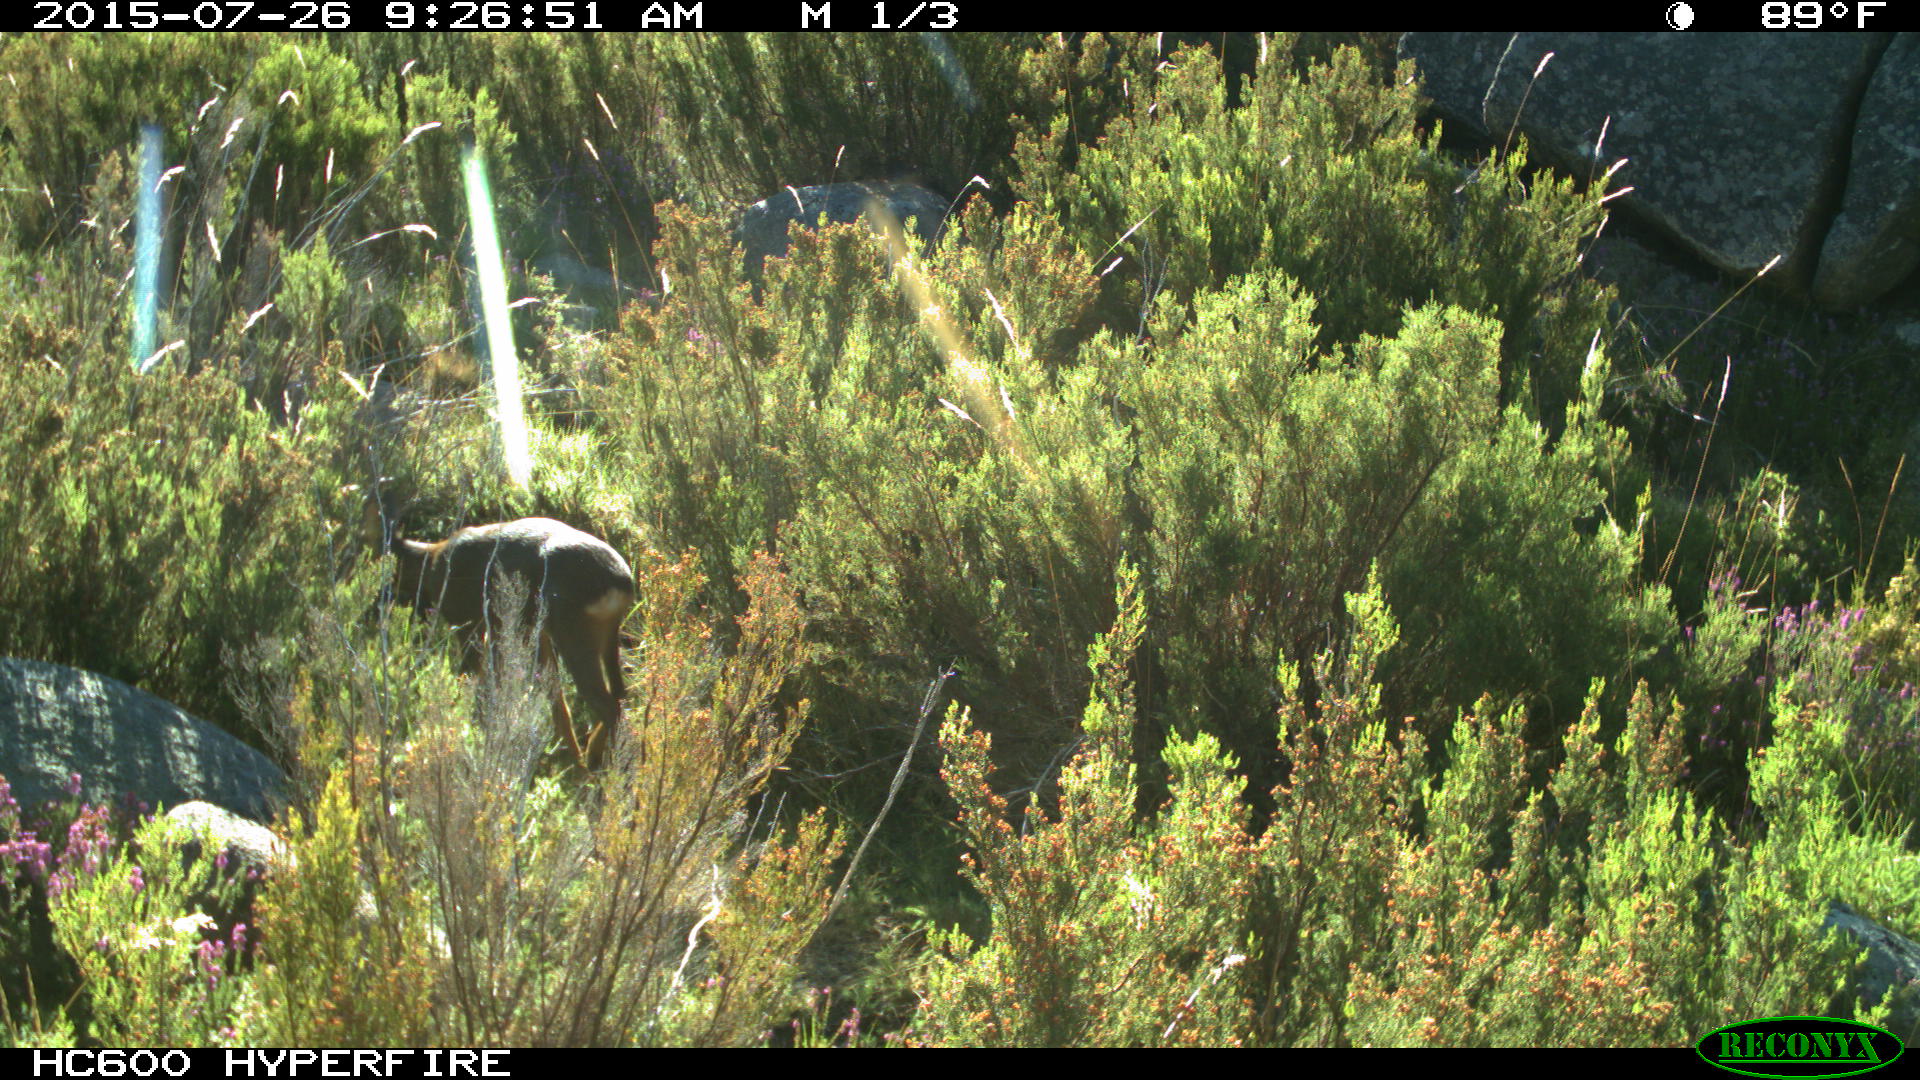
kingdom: Animalia
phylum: Chordata
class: Mammalia
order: Artiodactyla
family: Cervidae
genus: Capreolus
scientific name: Capreolus capreolus
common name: Western roe deer
